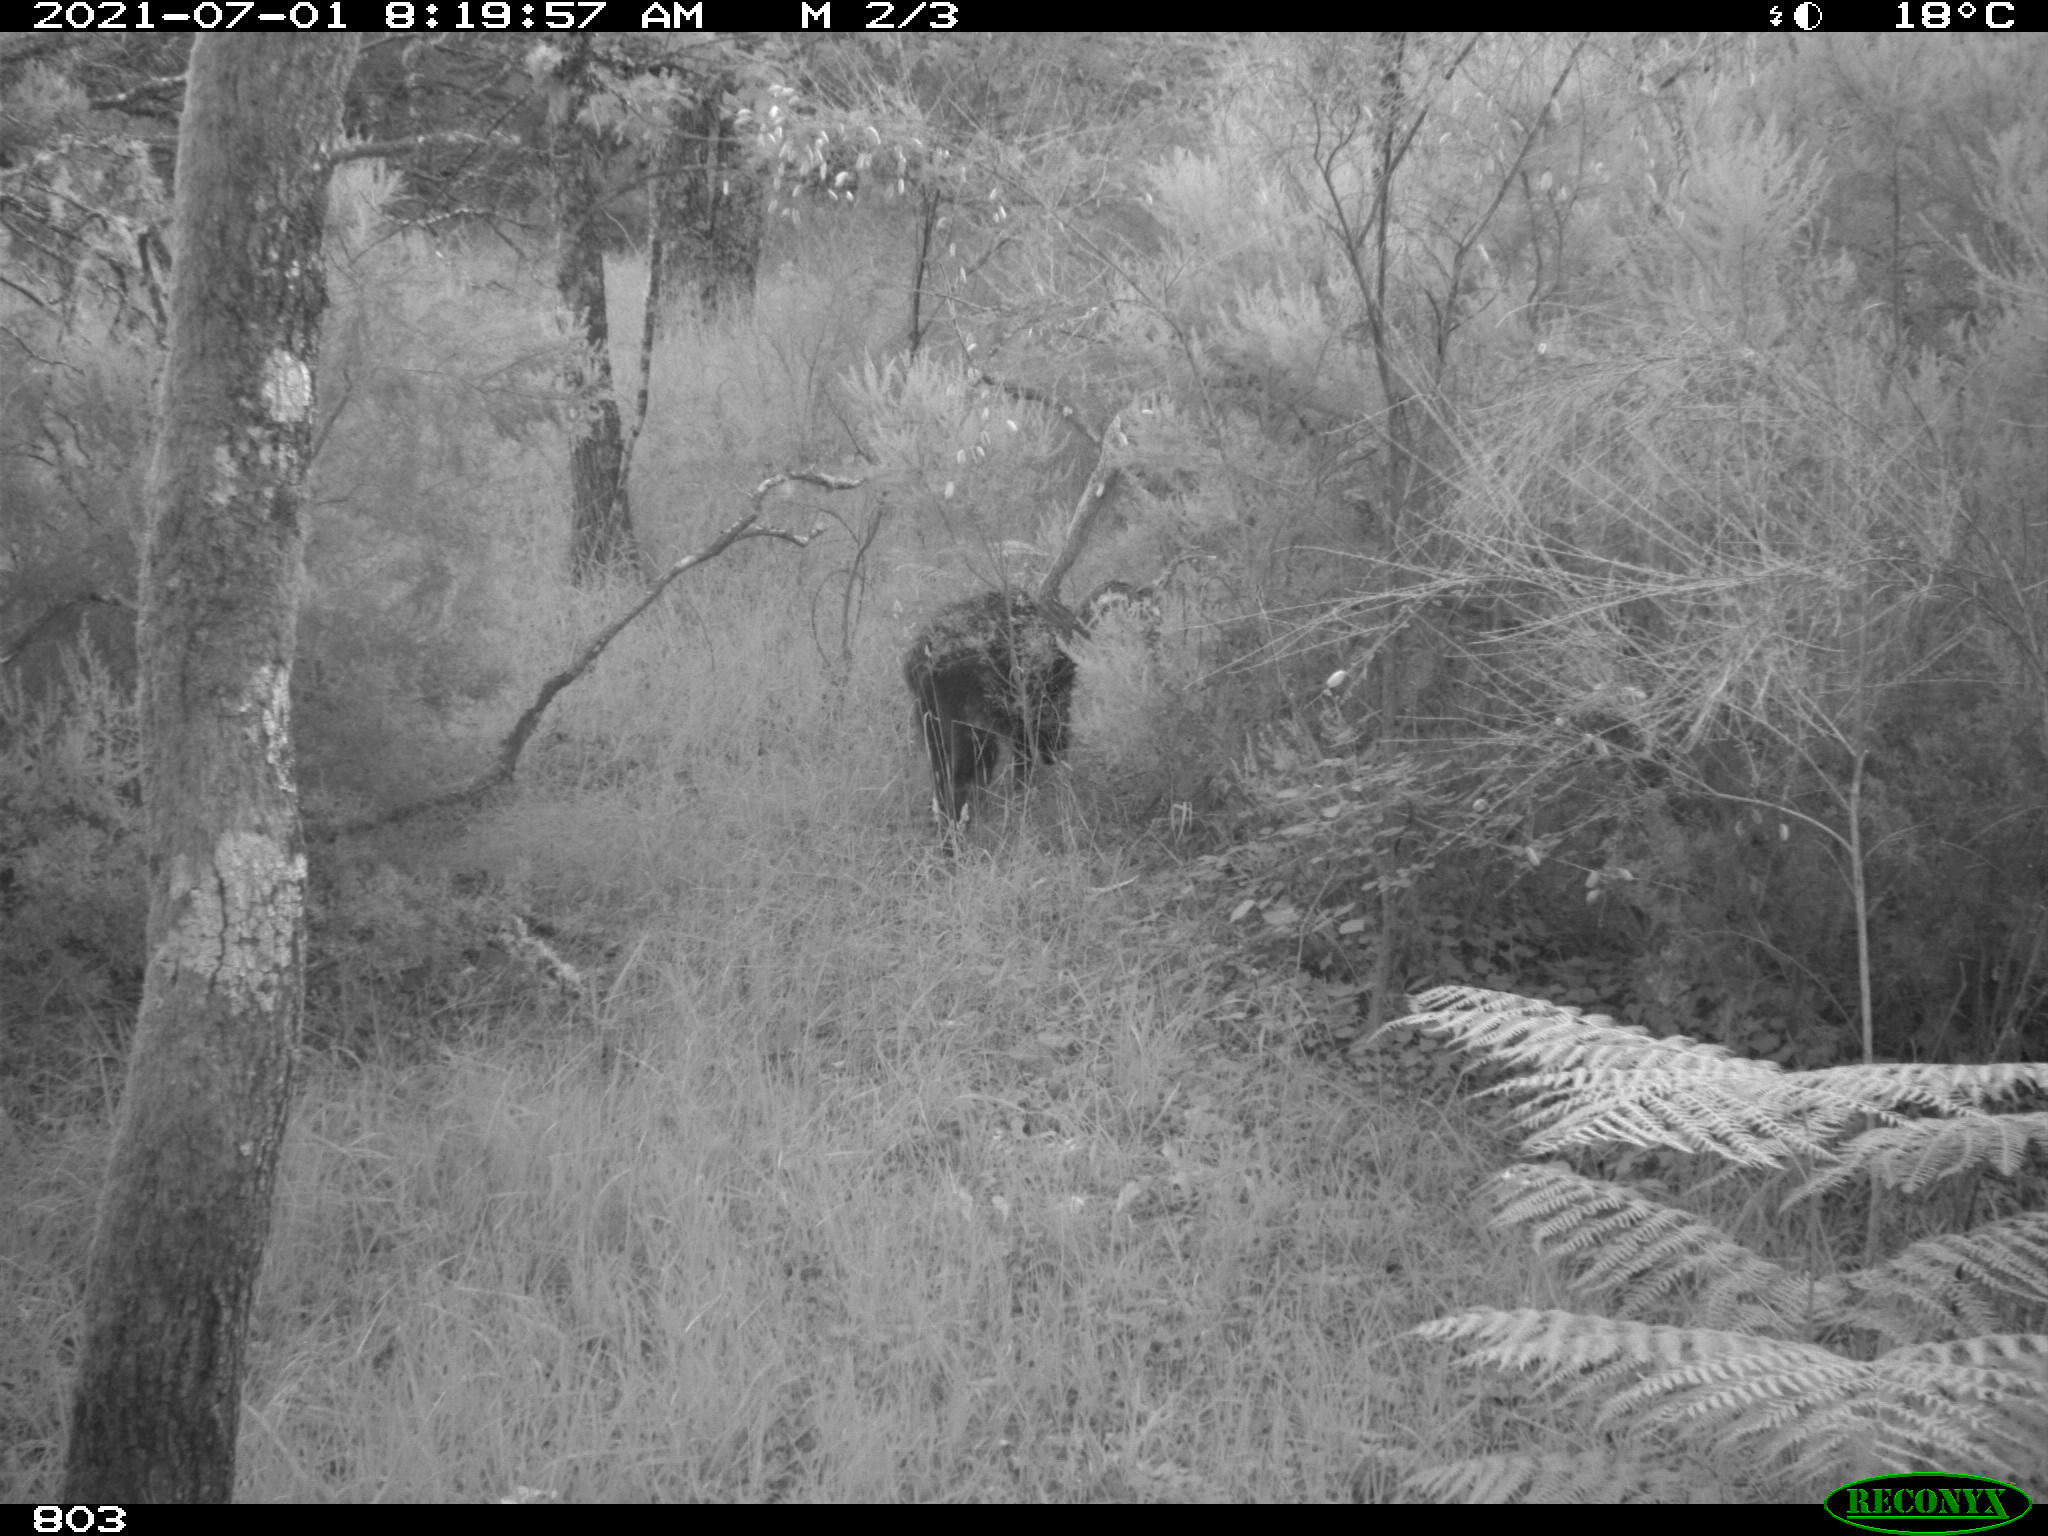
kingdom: Animalia
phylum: Chordata
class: Mammalia
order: Artiodactyla
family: Suidae
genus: Sus
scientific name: Sus scrofa
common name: Wild boar
